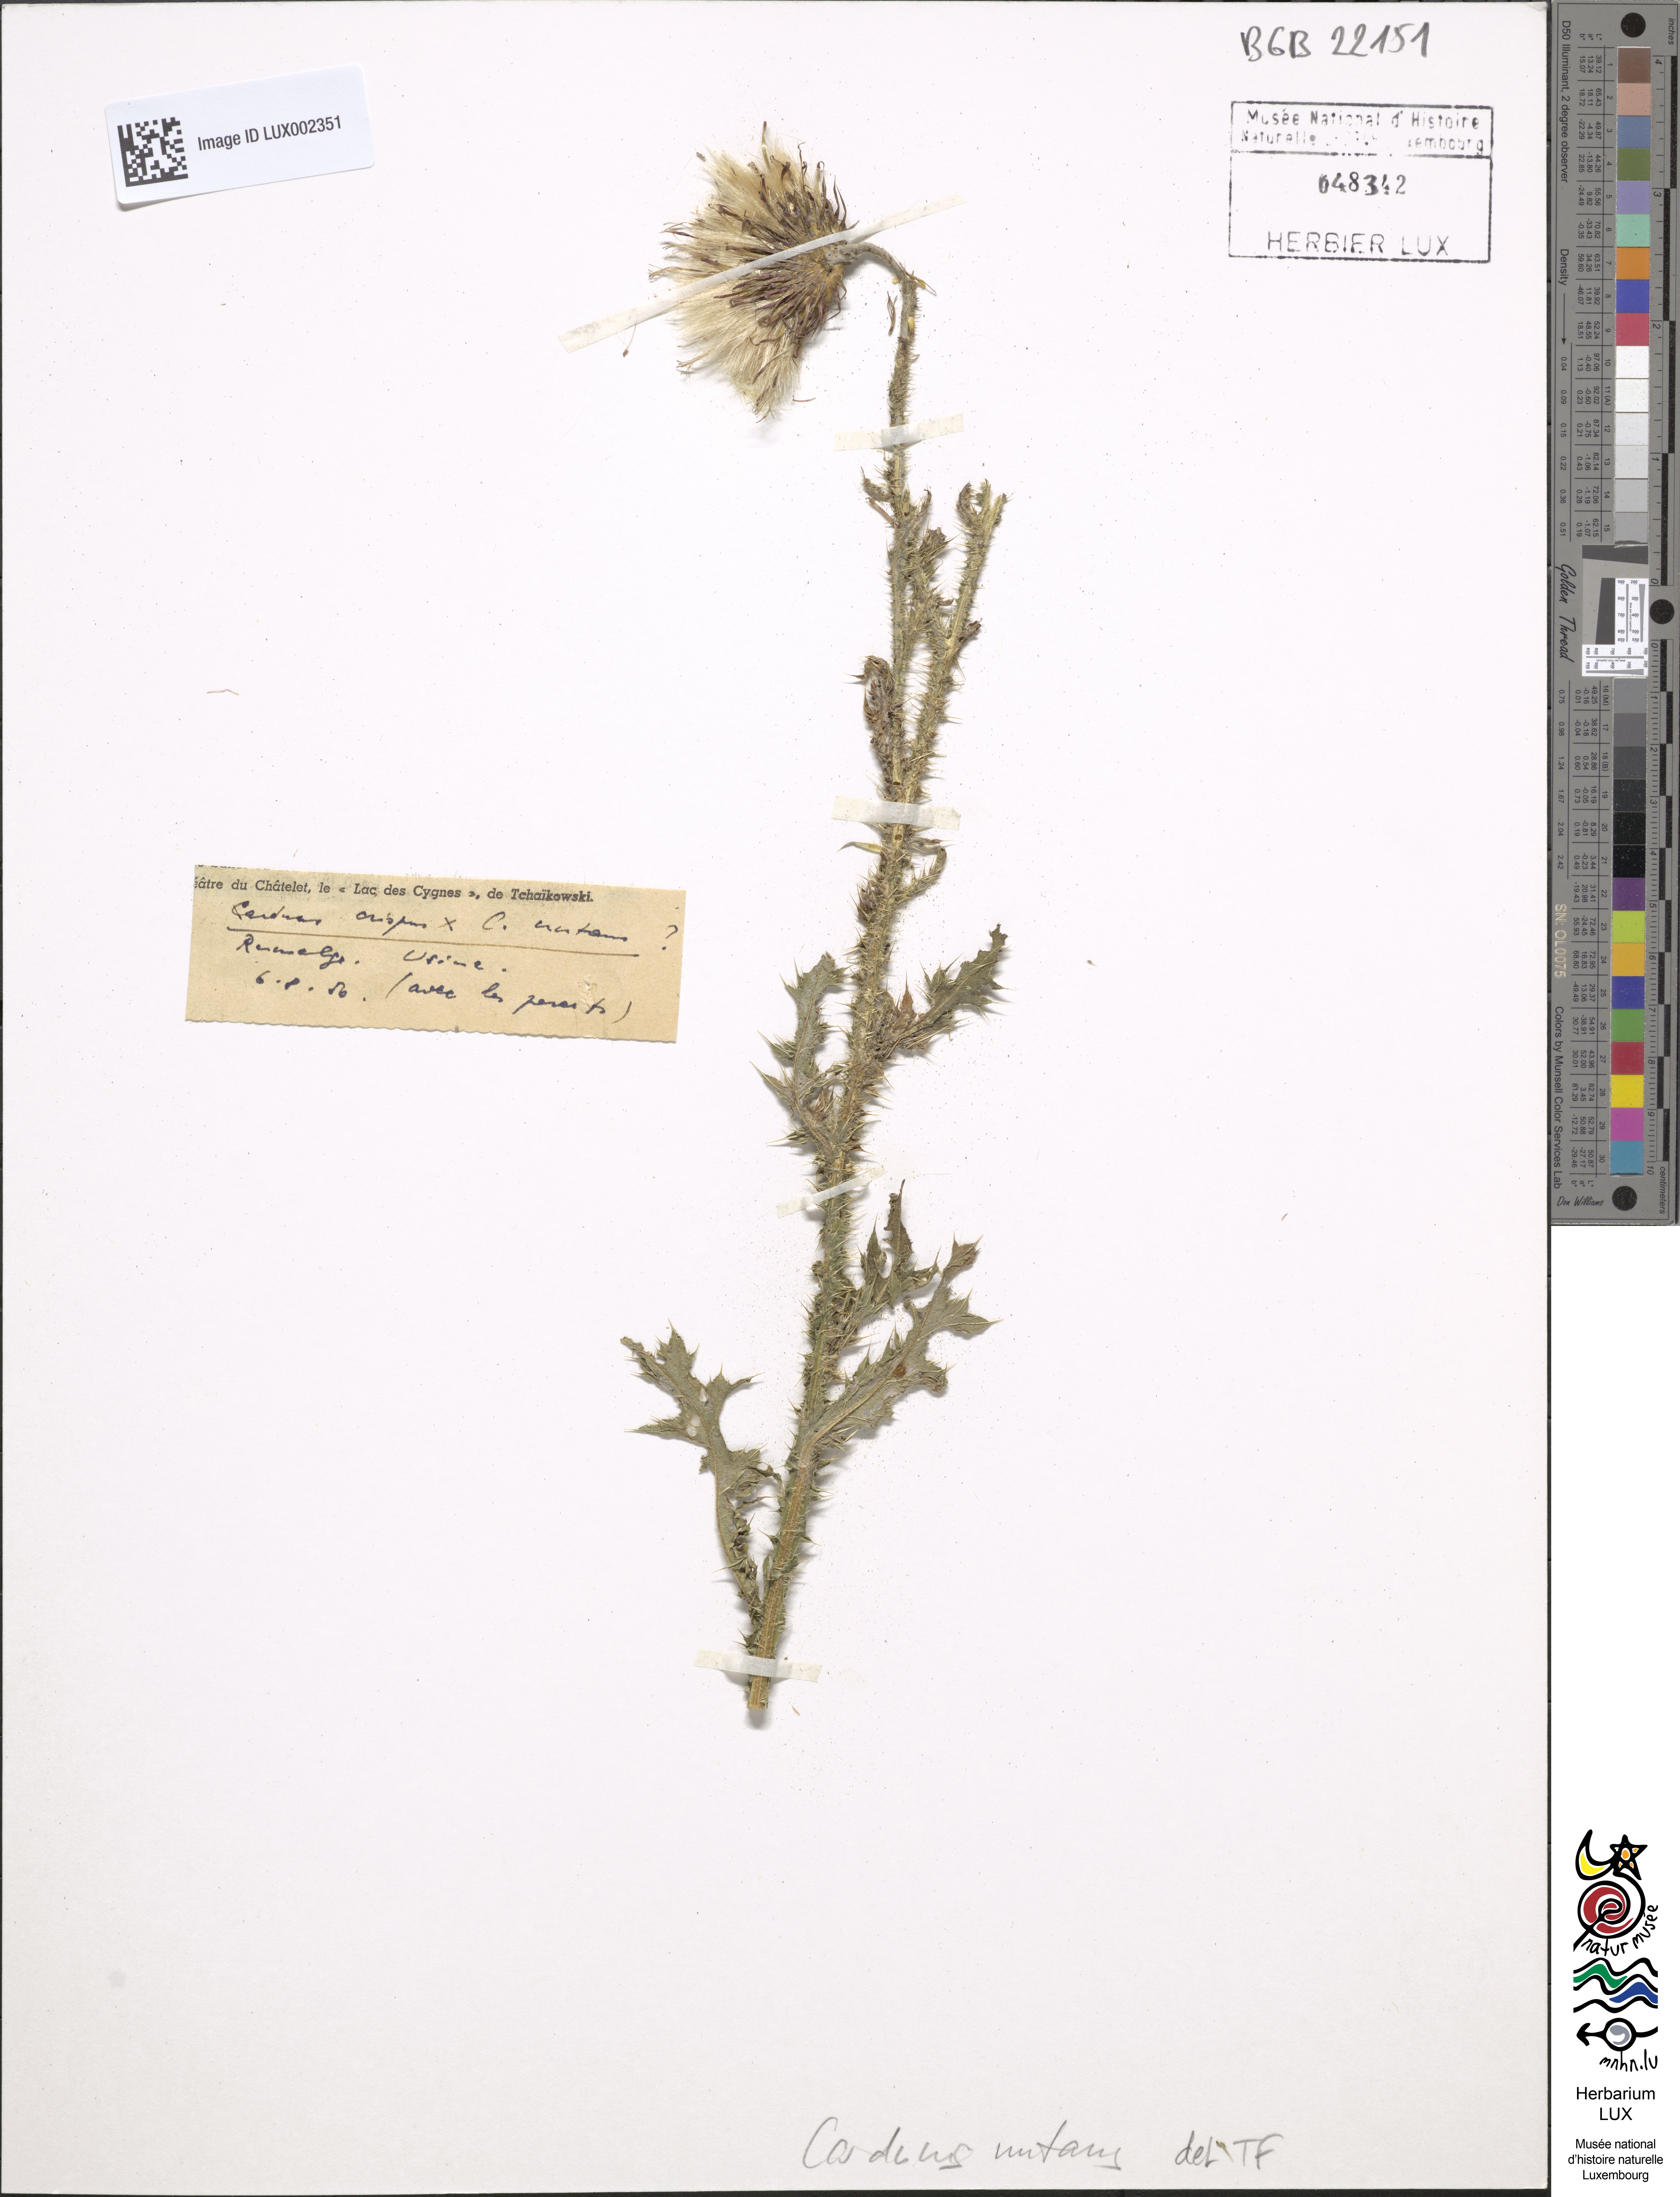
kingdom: Plantae
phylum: Tracheophyta
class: Magnoliopsida
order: Asterales
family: Asteraceae
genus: Carduus
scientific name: Carduus nutans
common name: Musk thistle
